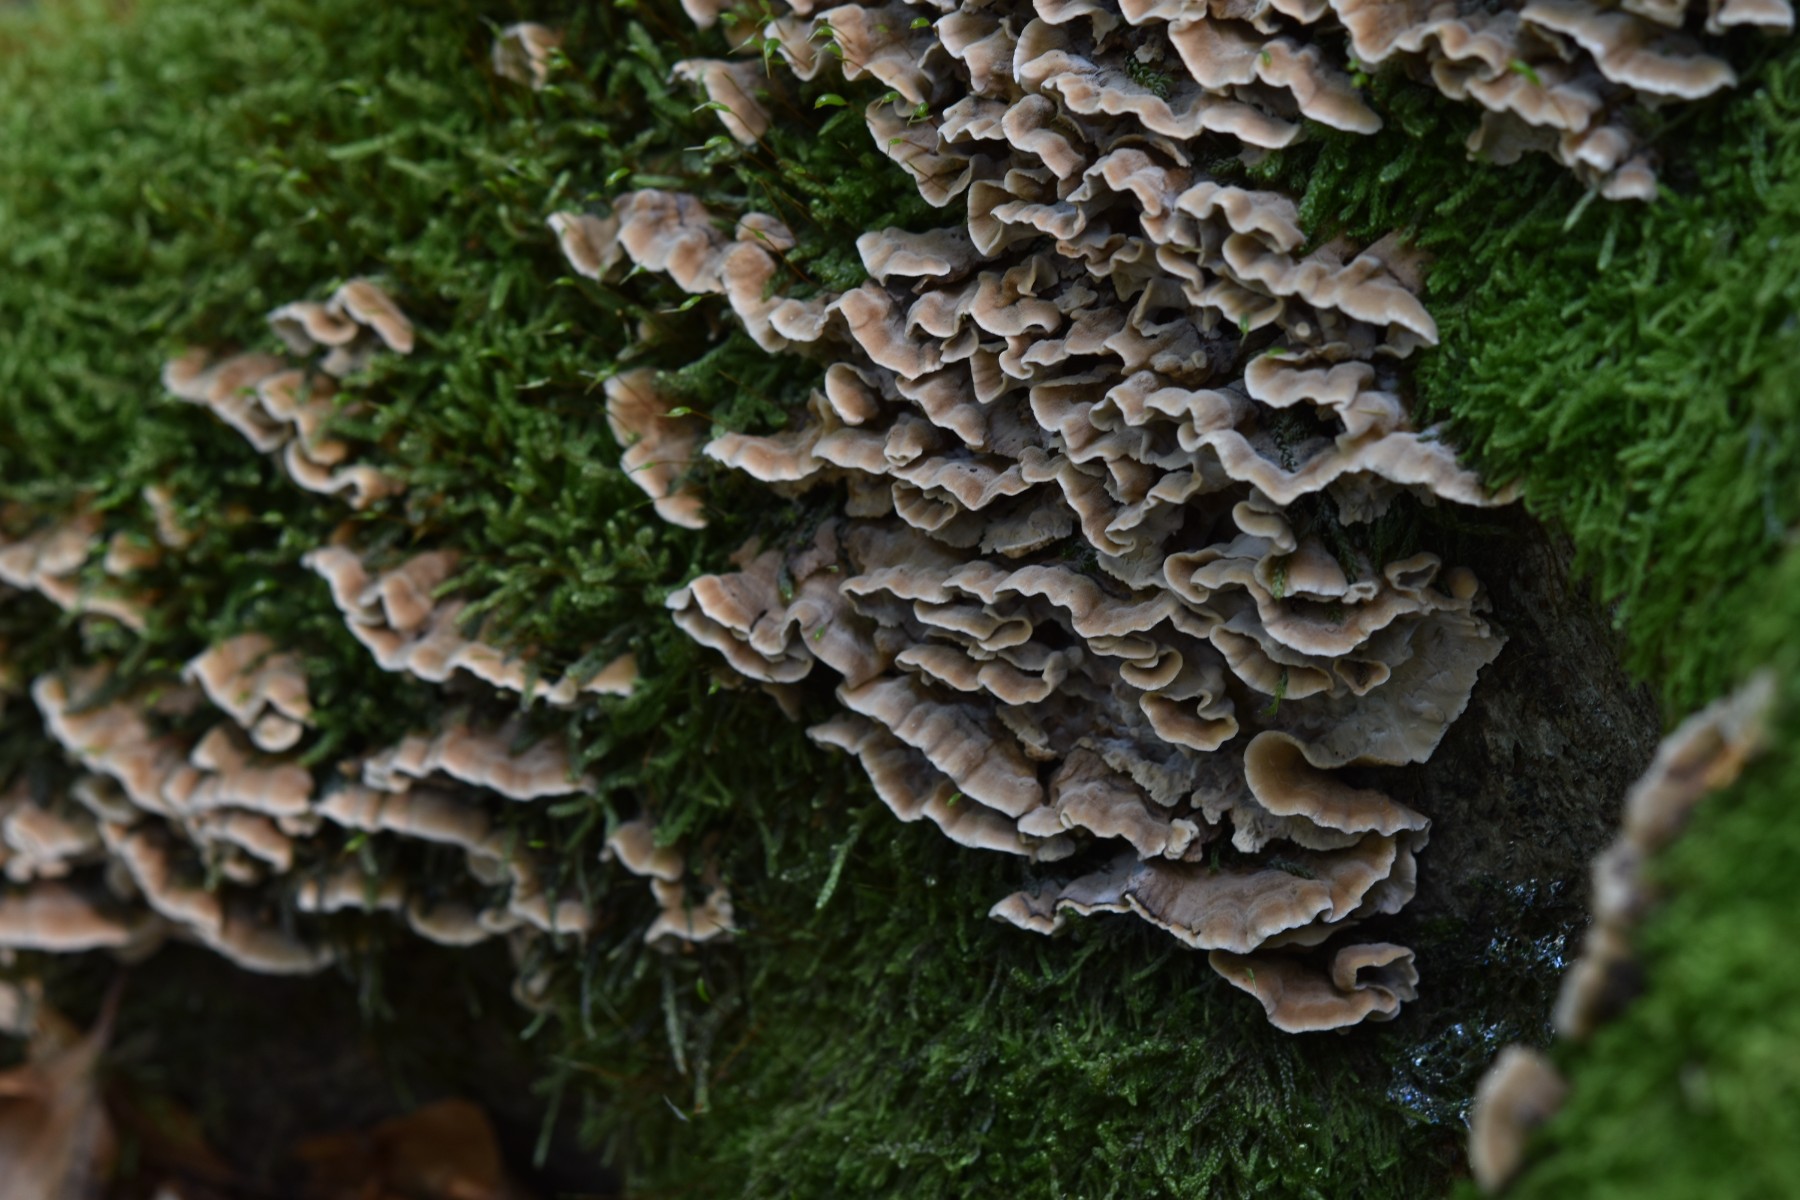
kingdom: Fungi
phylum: Basidiomycota
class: Agaricomycetes
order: Russulales
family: Hericiaceae
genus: Laxitextum
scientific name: Laxitextum bicolor
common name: tvefarvet filtskind
